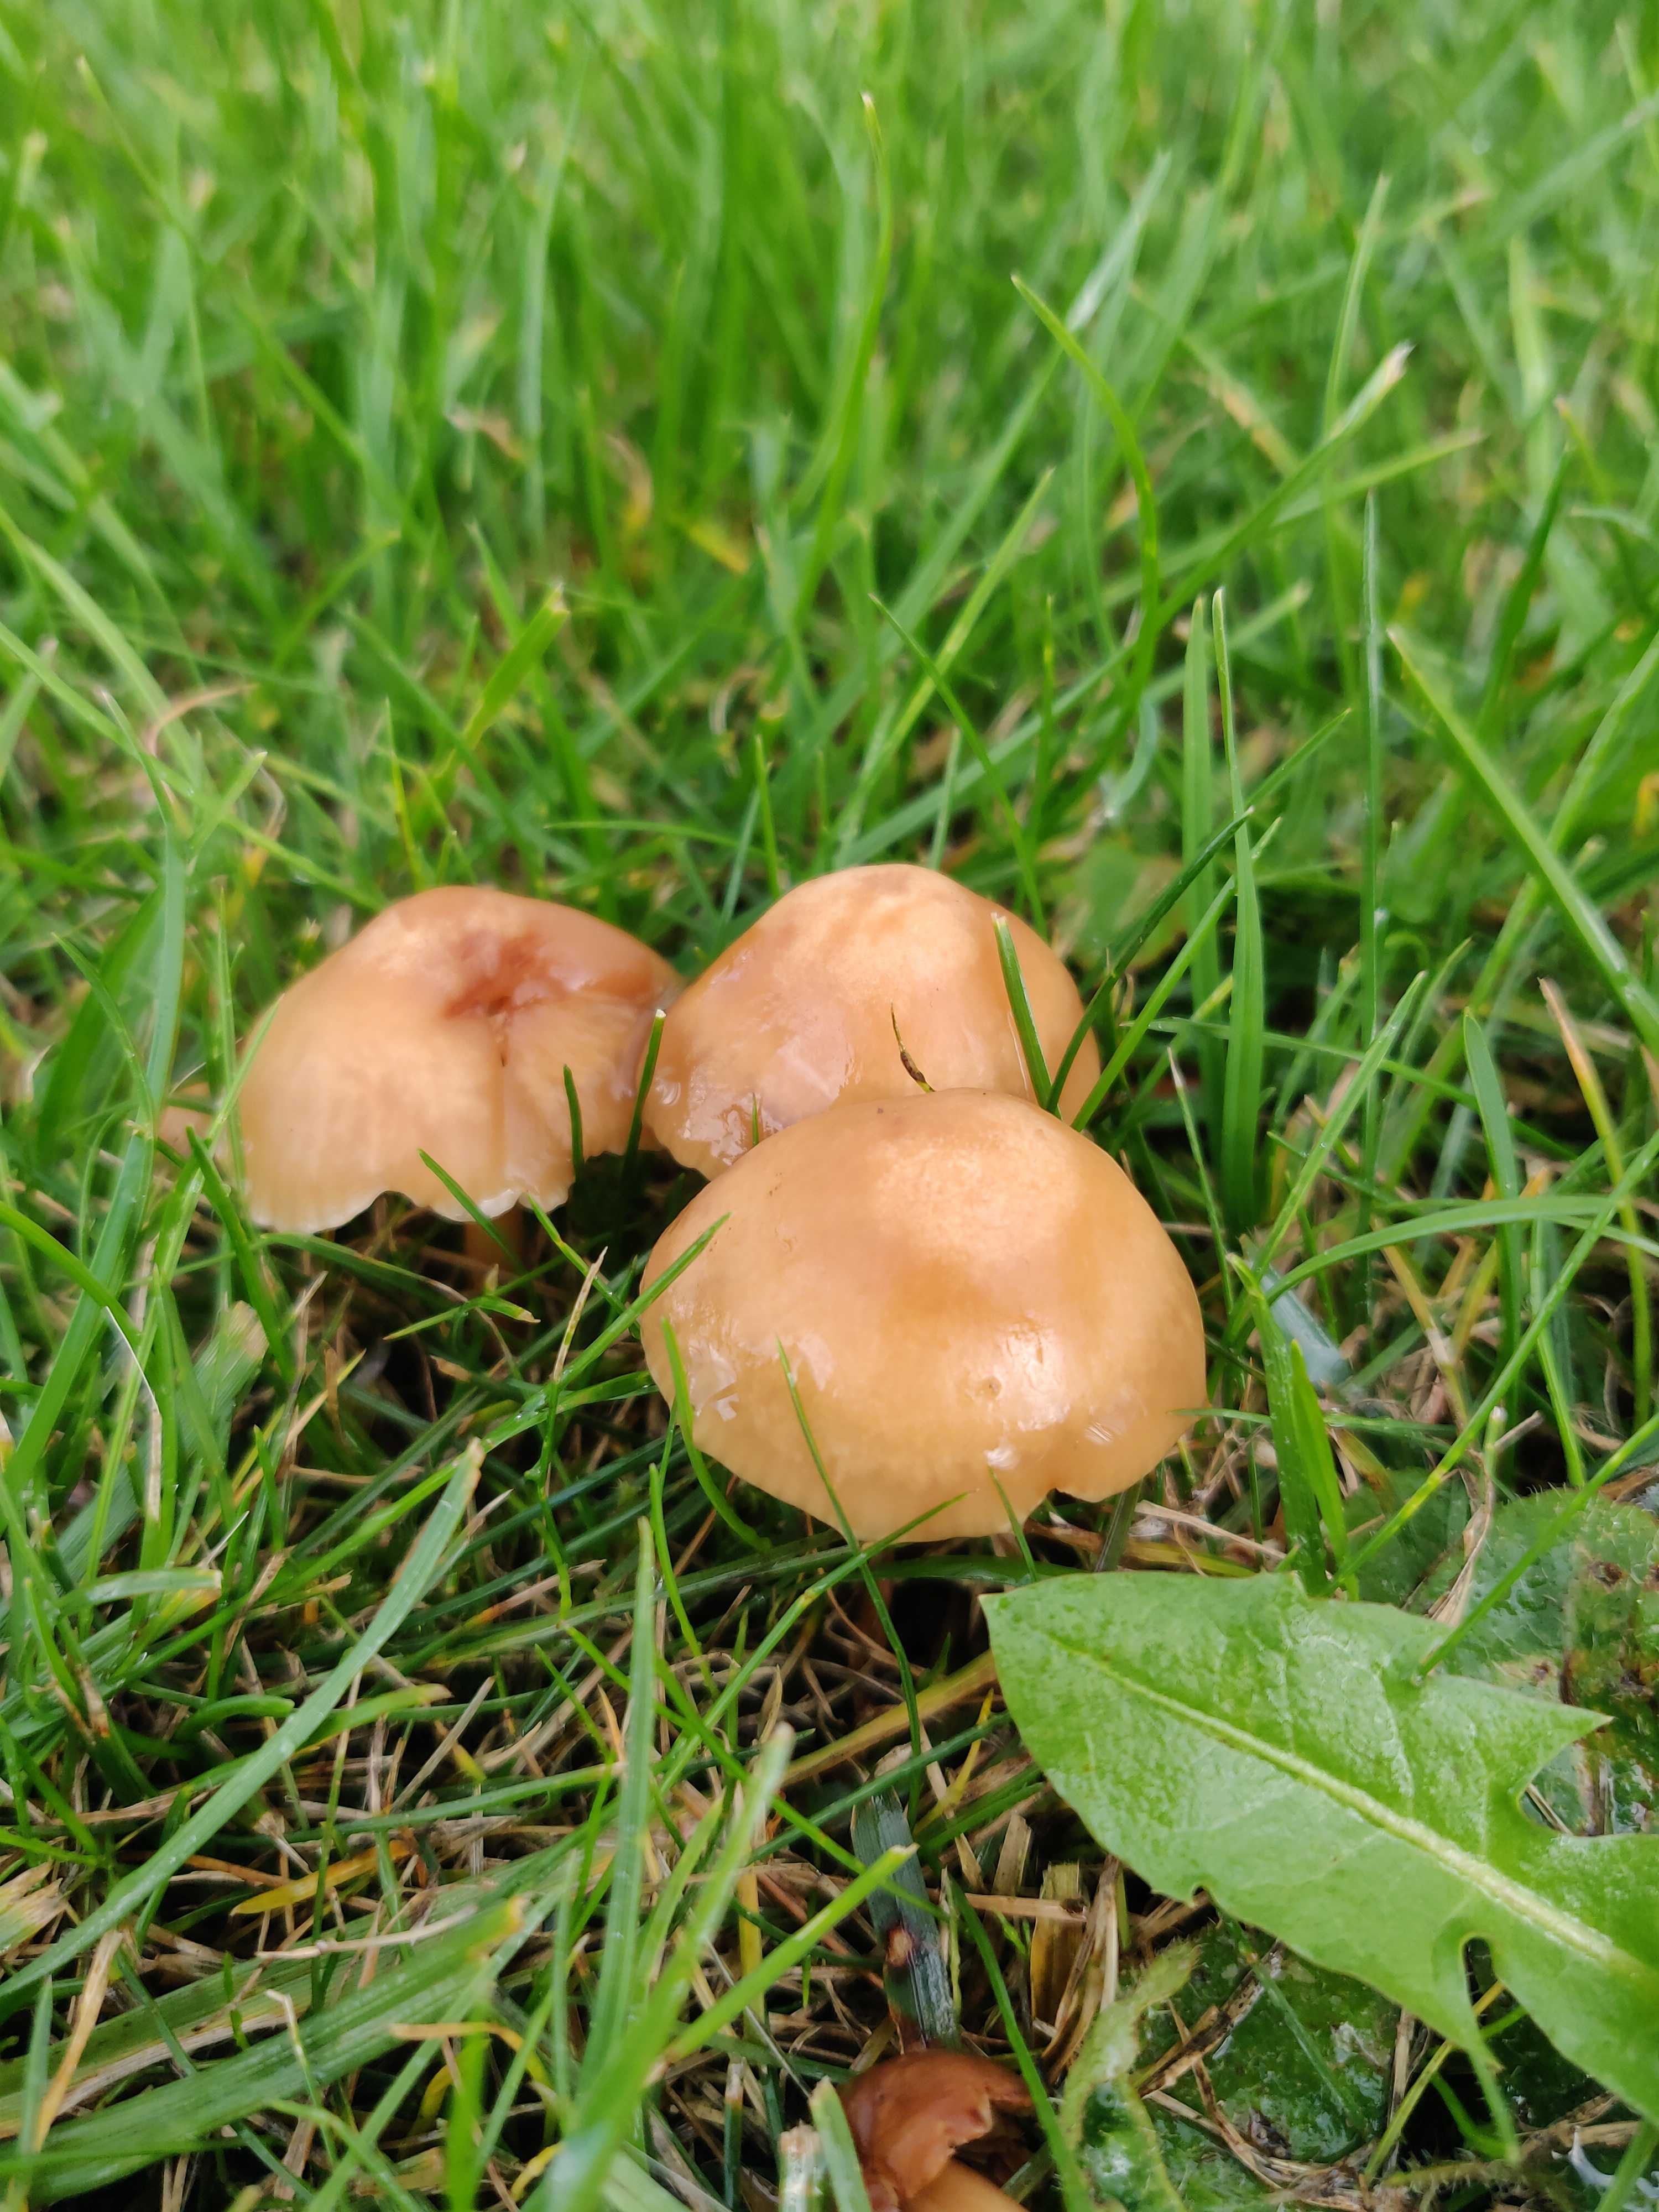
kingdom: Fungi
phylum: Basidiomycota
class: Agaricomycetes
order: Agaricales
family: Hygrophoraceae
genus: Cuphophyllus
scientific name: Cuphophyllus pratensis
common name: eng-vokshat
